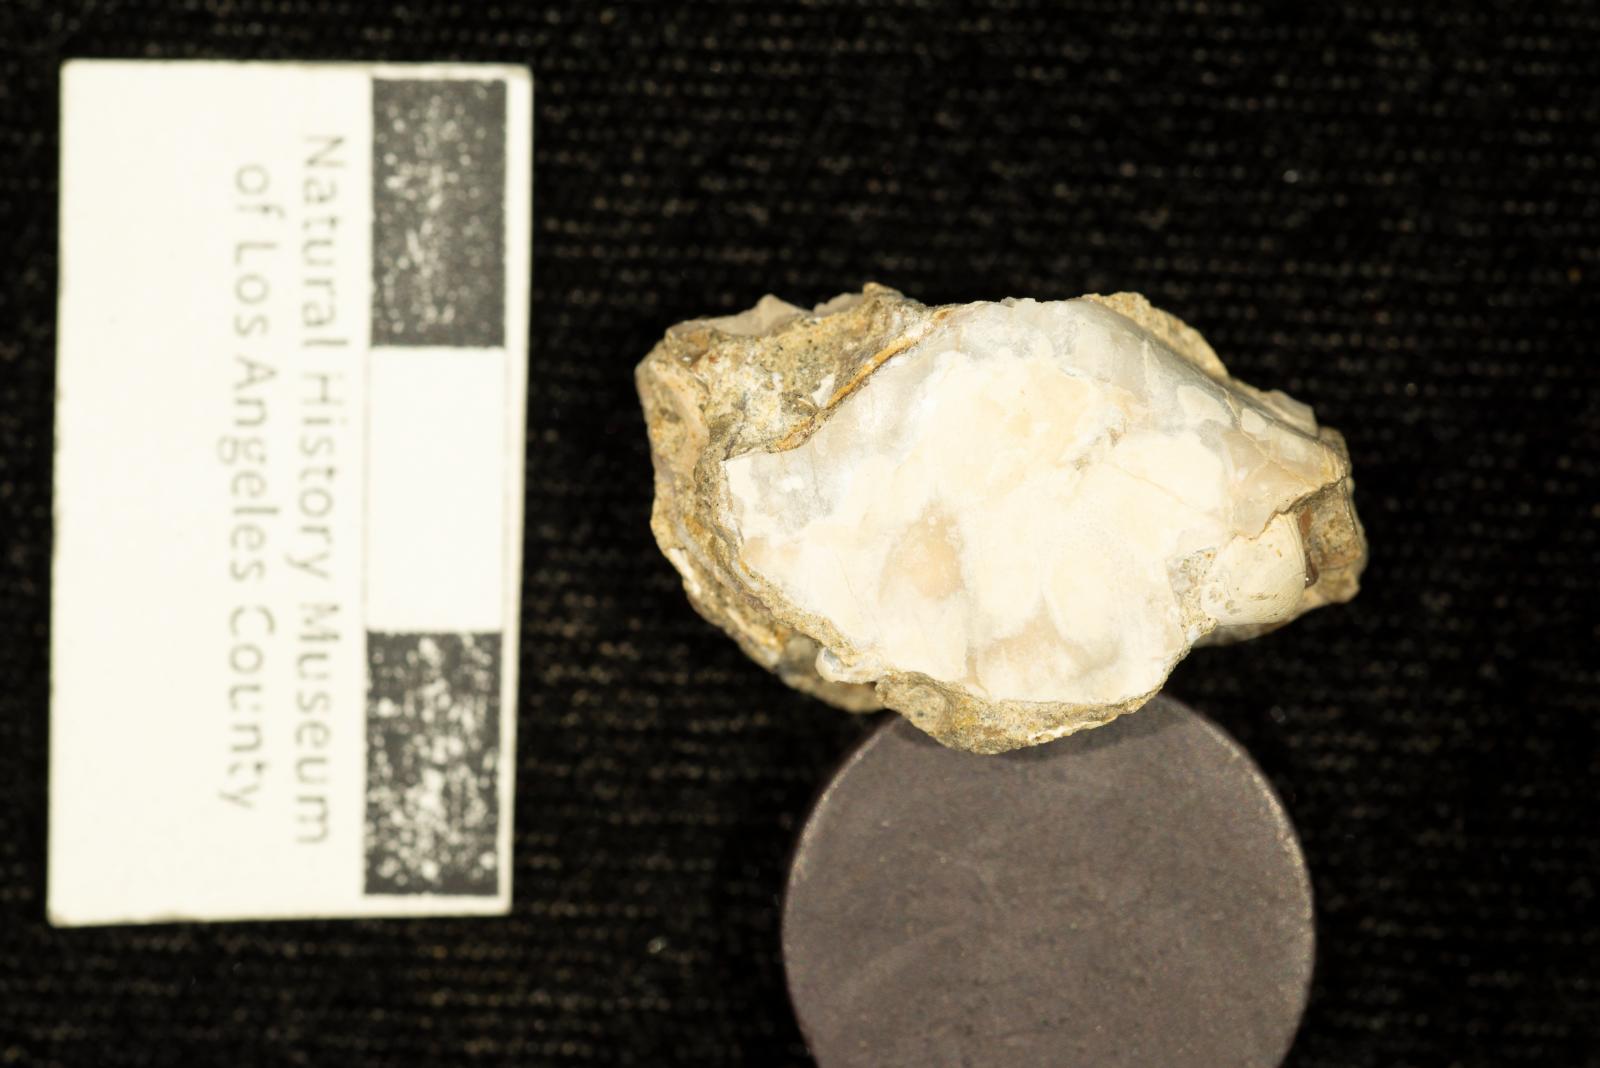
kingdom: Animalia
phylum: Mollusca
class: Bivalvia
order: Cardiida
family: Cardiidae
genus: Protocardia
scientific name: Protocardia Cardium placerensis
